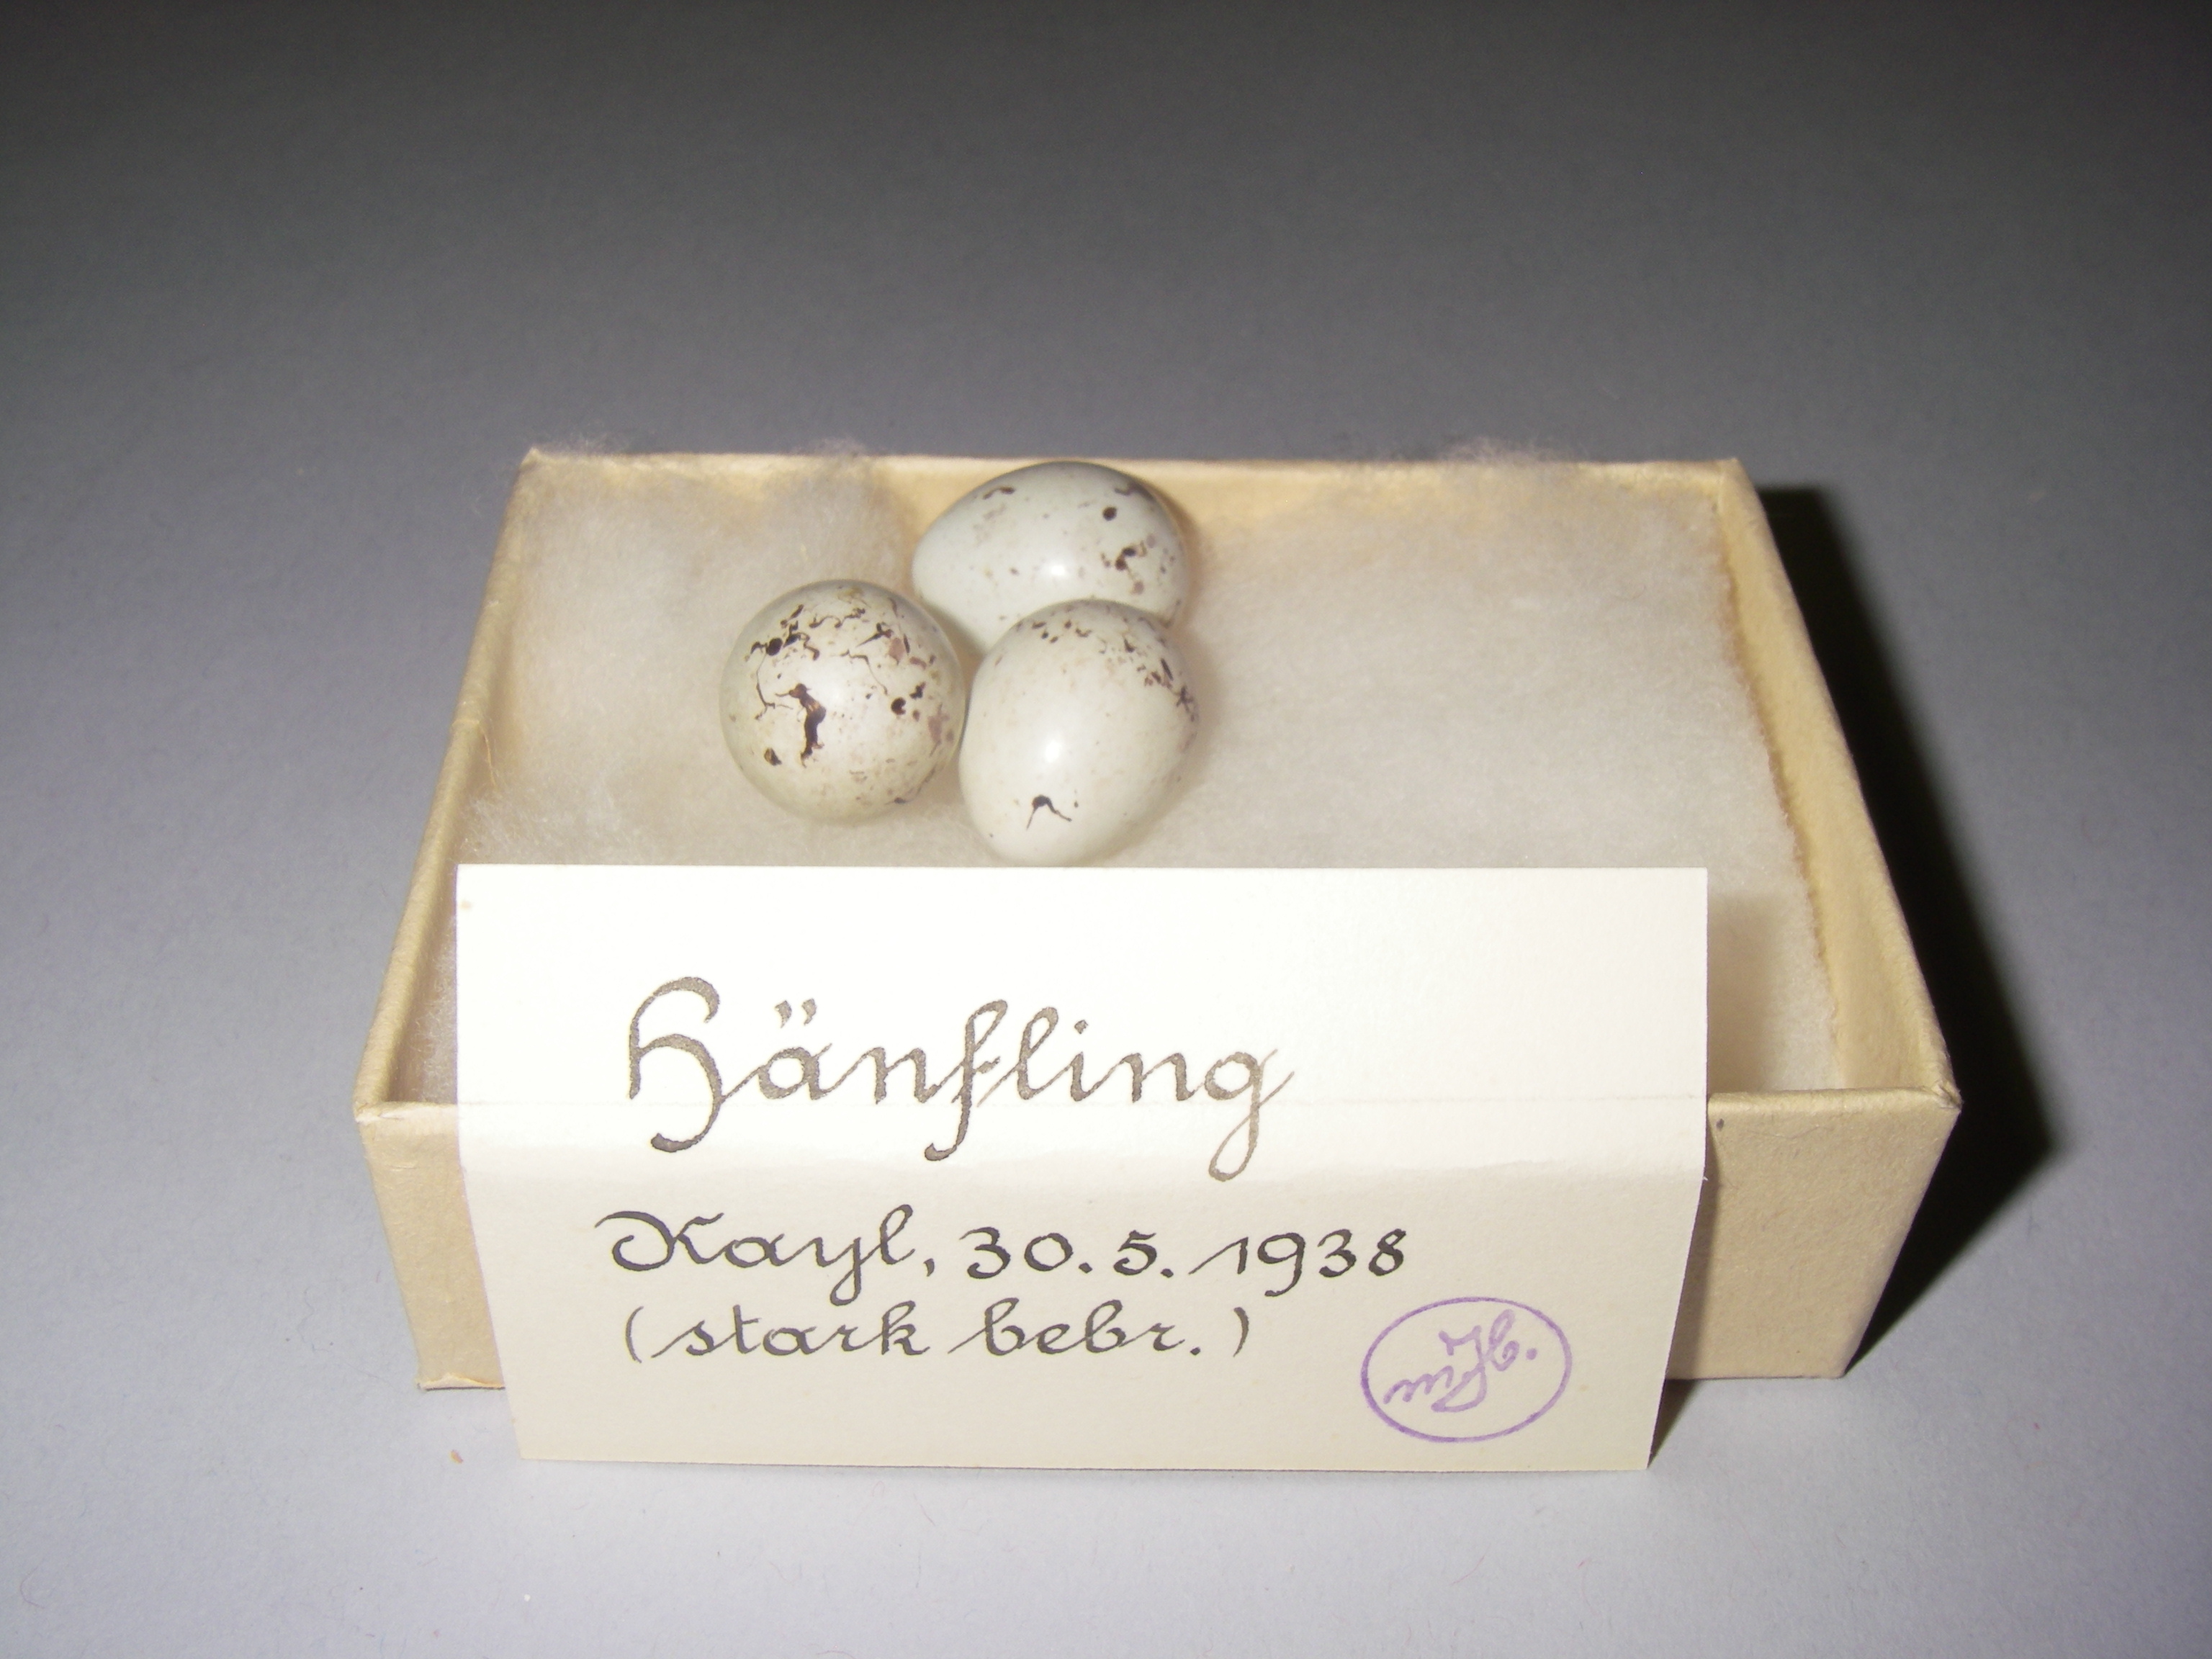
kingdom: Animalia
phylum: Chordata
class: Aves
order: Passeriformes
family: Fringillidae
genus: Linaria
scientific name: Linaria cannabina
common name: Common linnet
